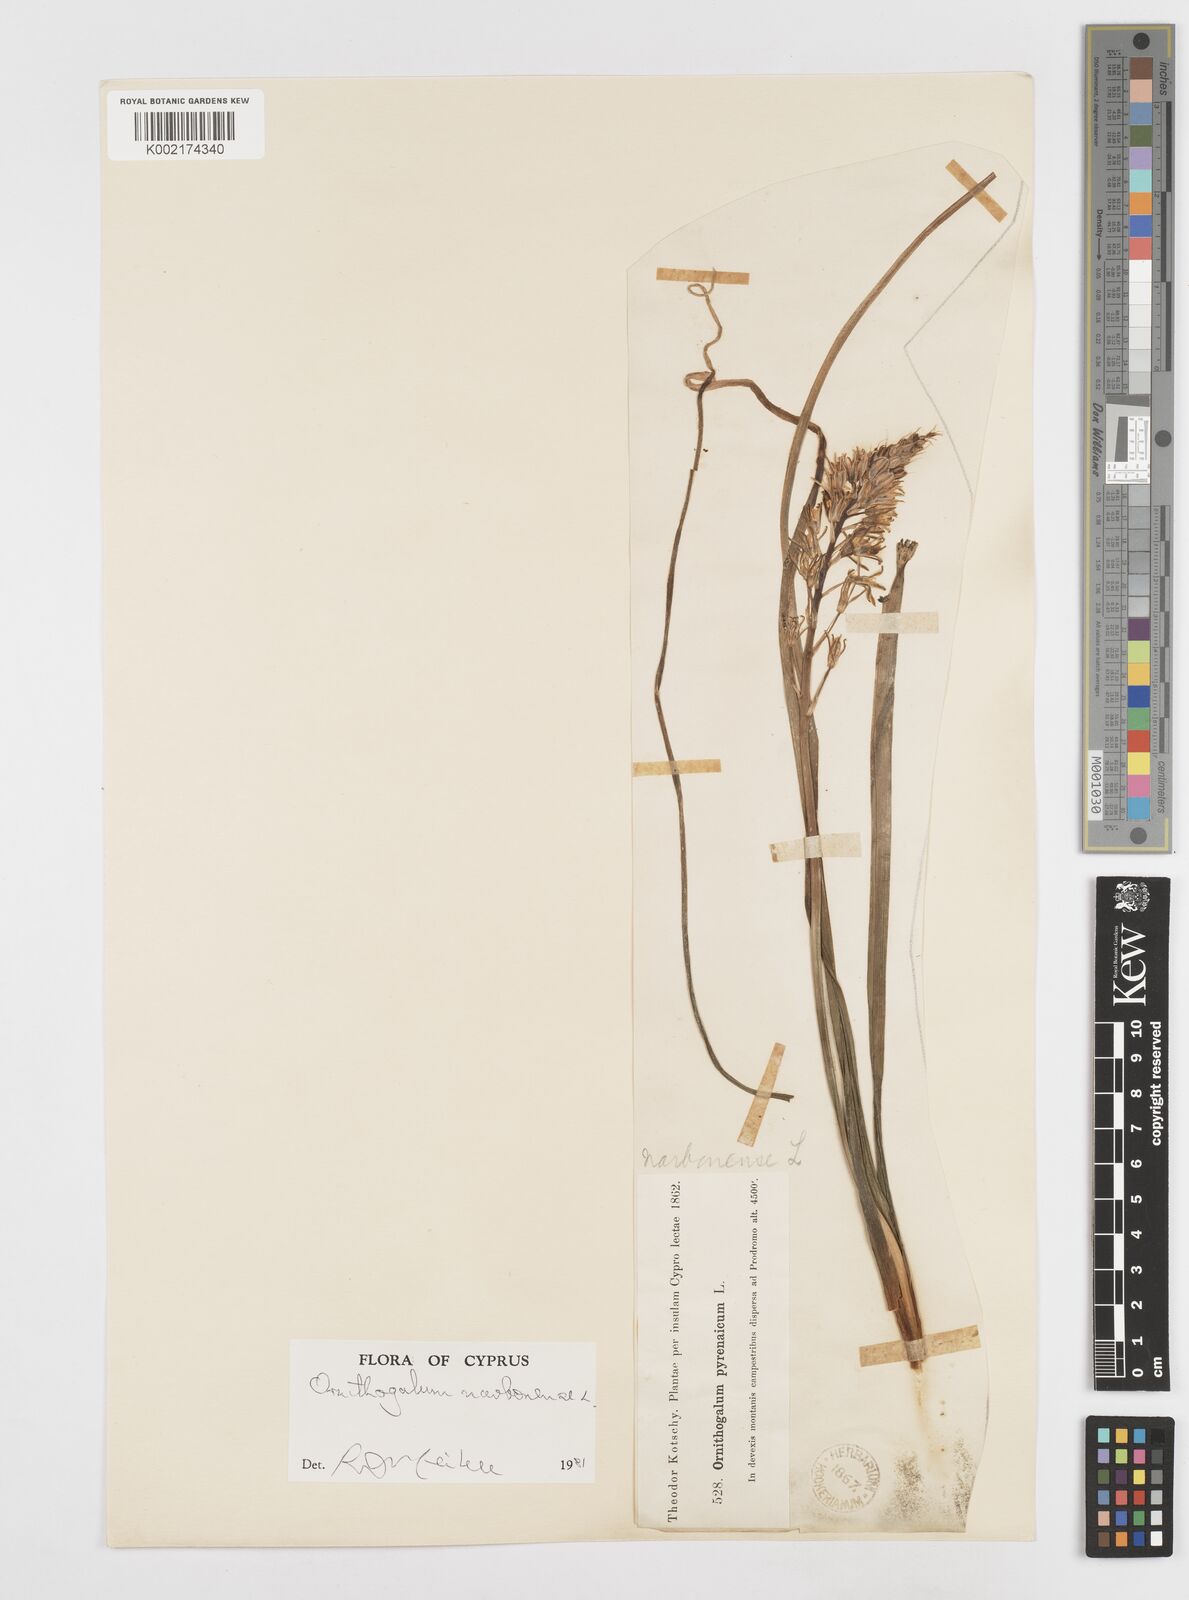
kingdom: Plantae
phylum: Tracheophyta
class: Liliopsida
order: Asparagales
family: Asparagaceae
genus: Ornithogalum
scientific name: Ornithogalum narbonense
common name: Bath-asparagus
